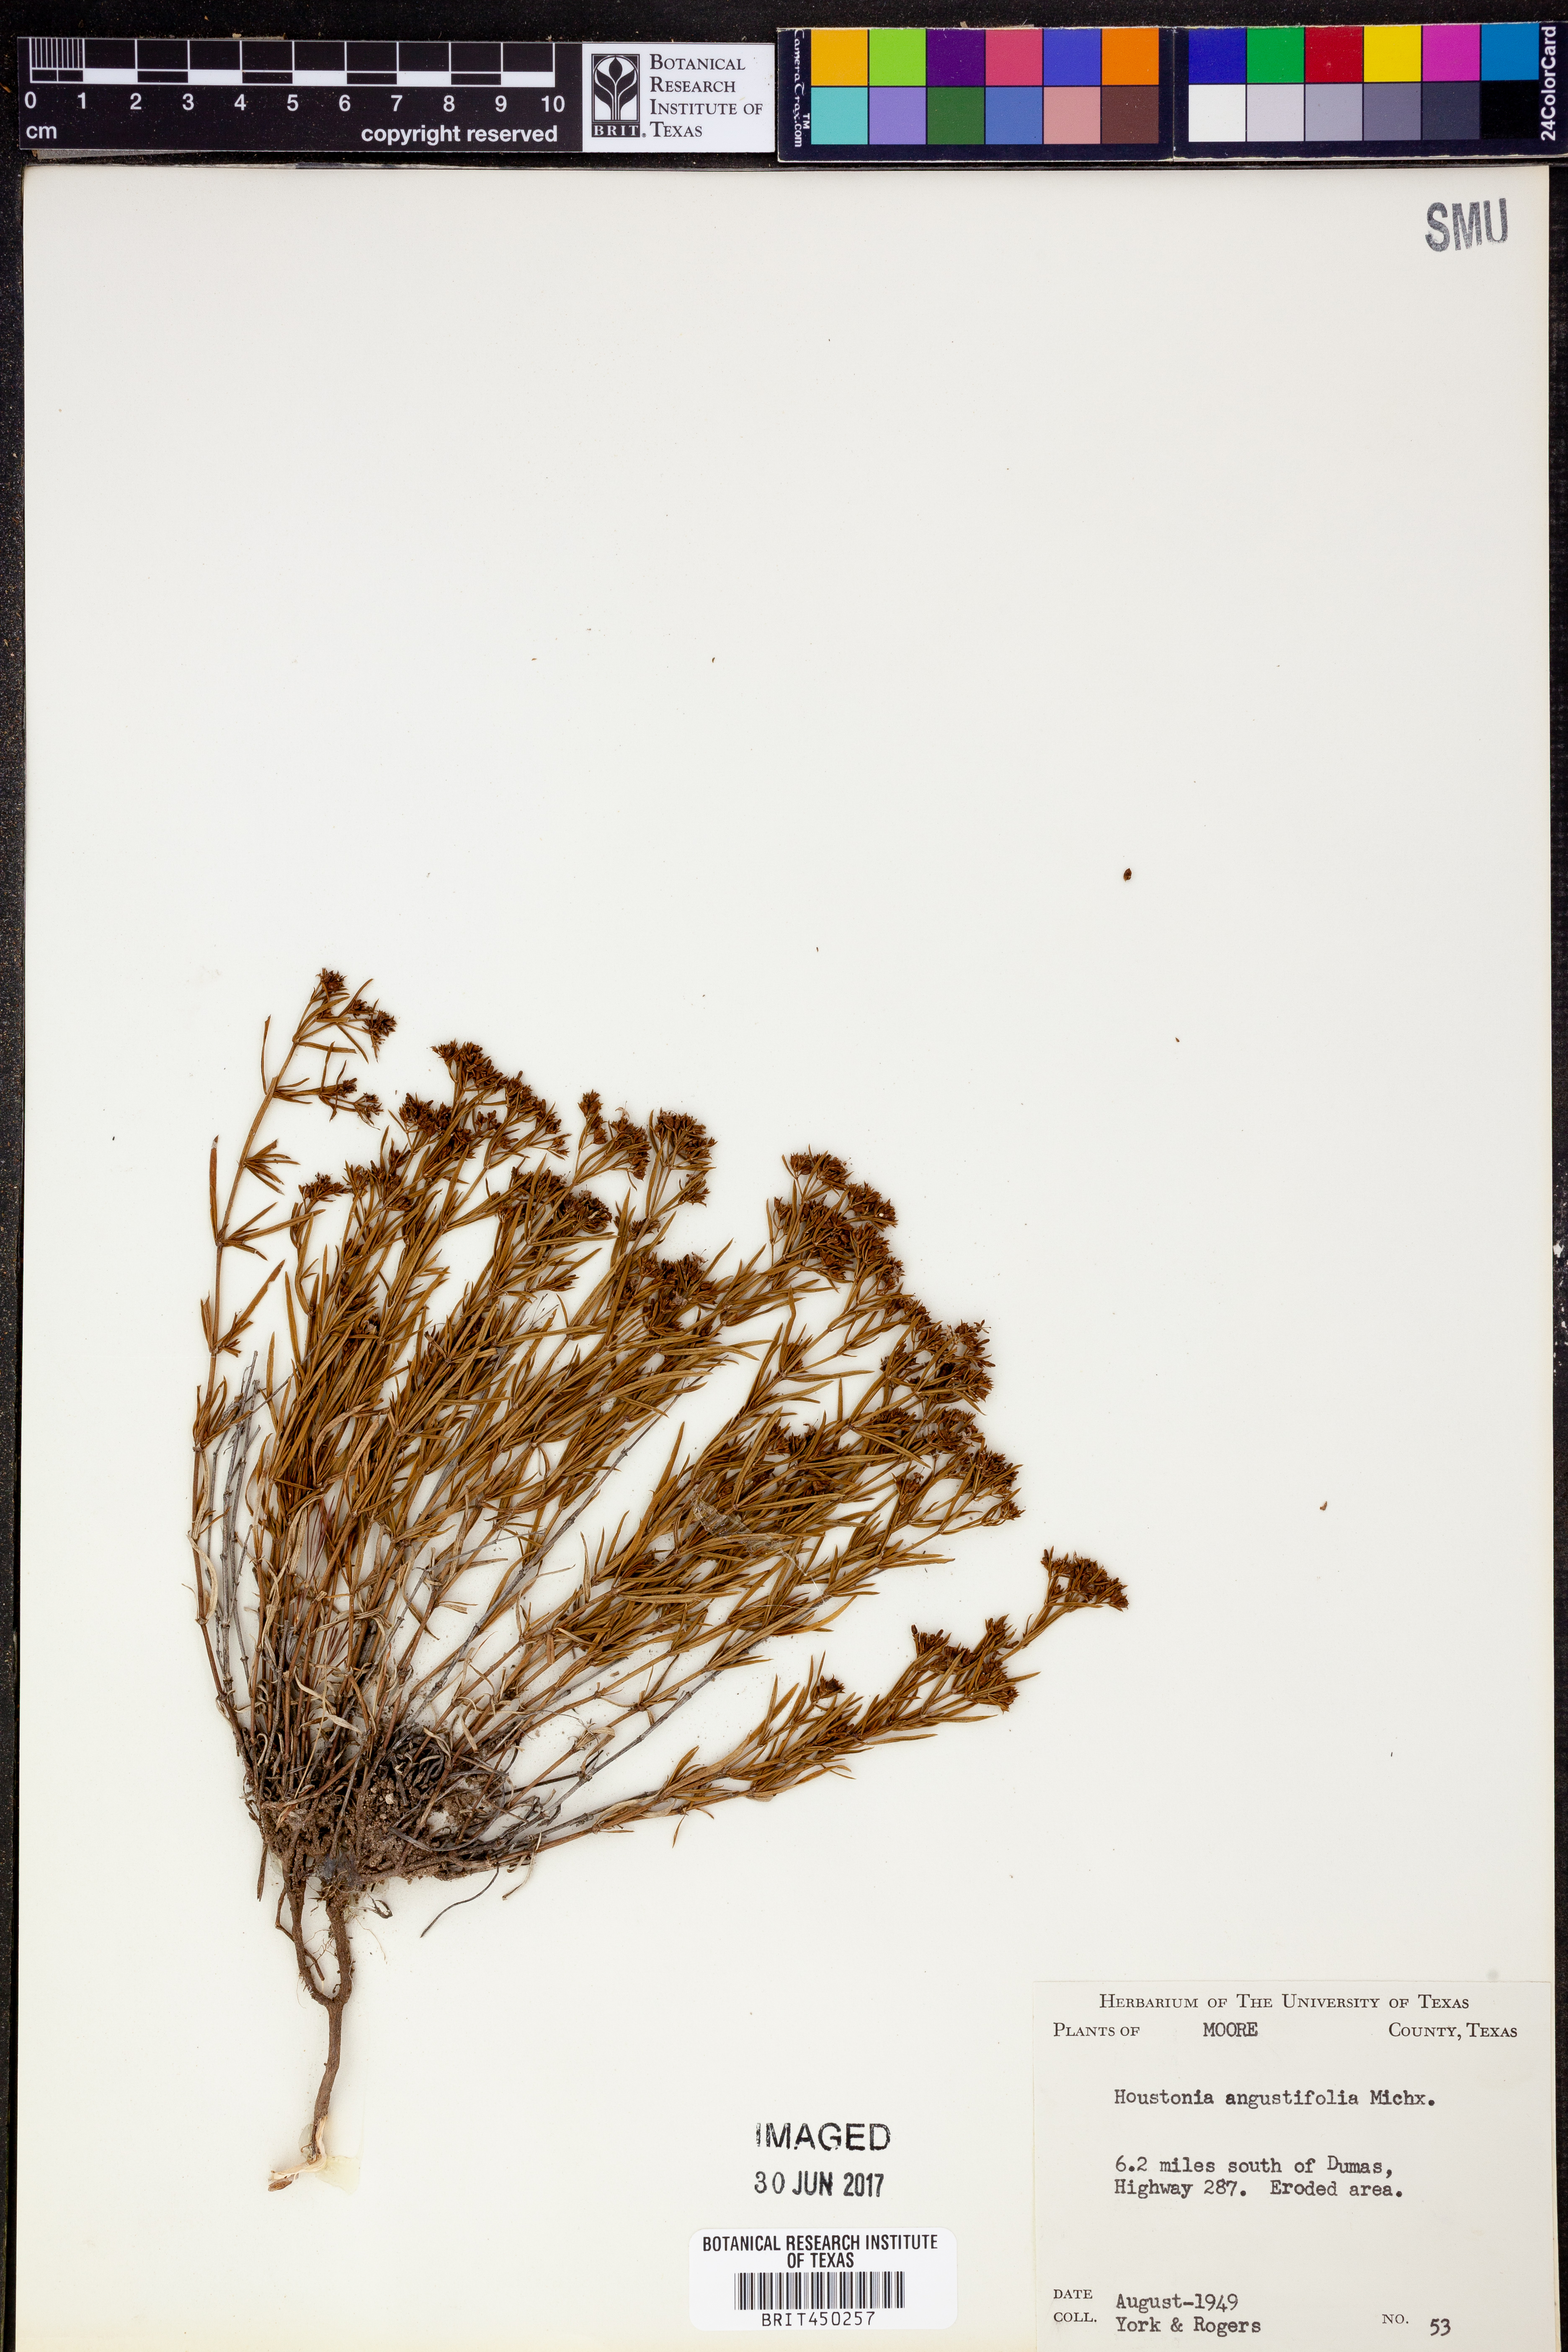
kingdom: Plantae
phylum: Tracheophyta
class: Magnoliopsida
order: Gentianales
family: Rubiaceae
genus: Stenaria
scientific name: Stenaria nigricans
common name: Diamondflowers
